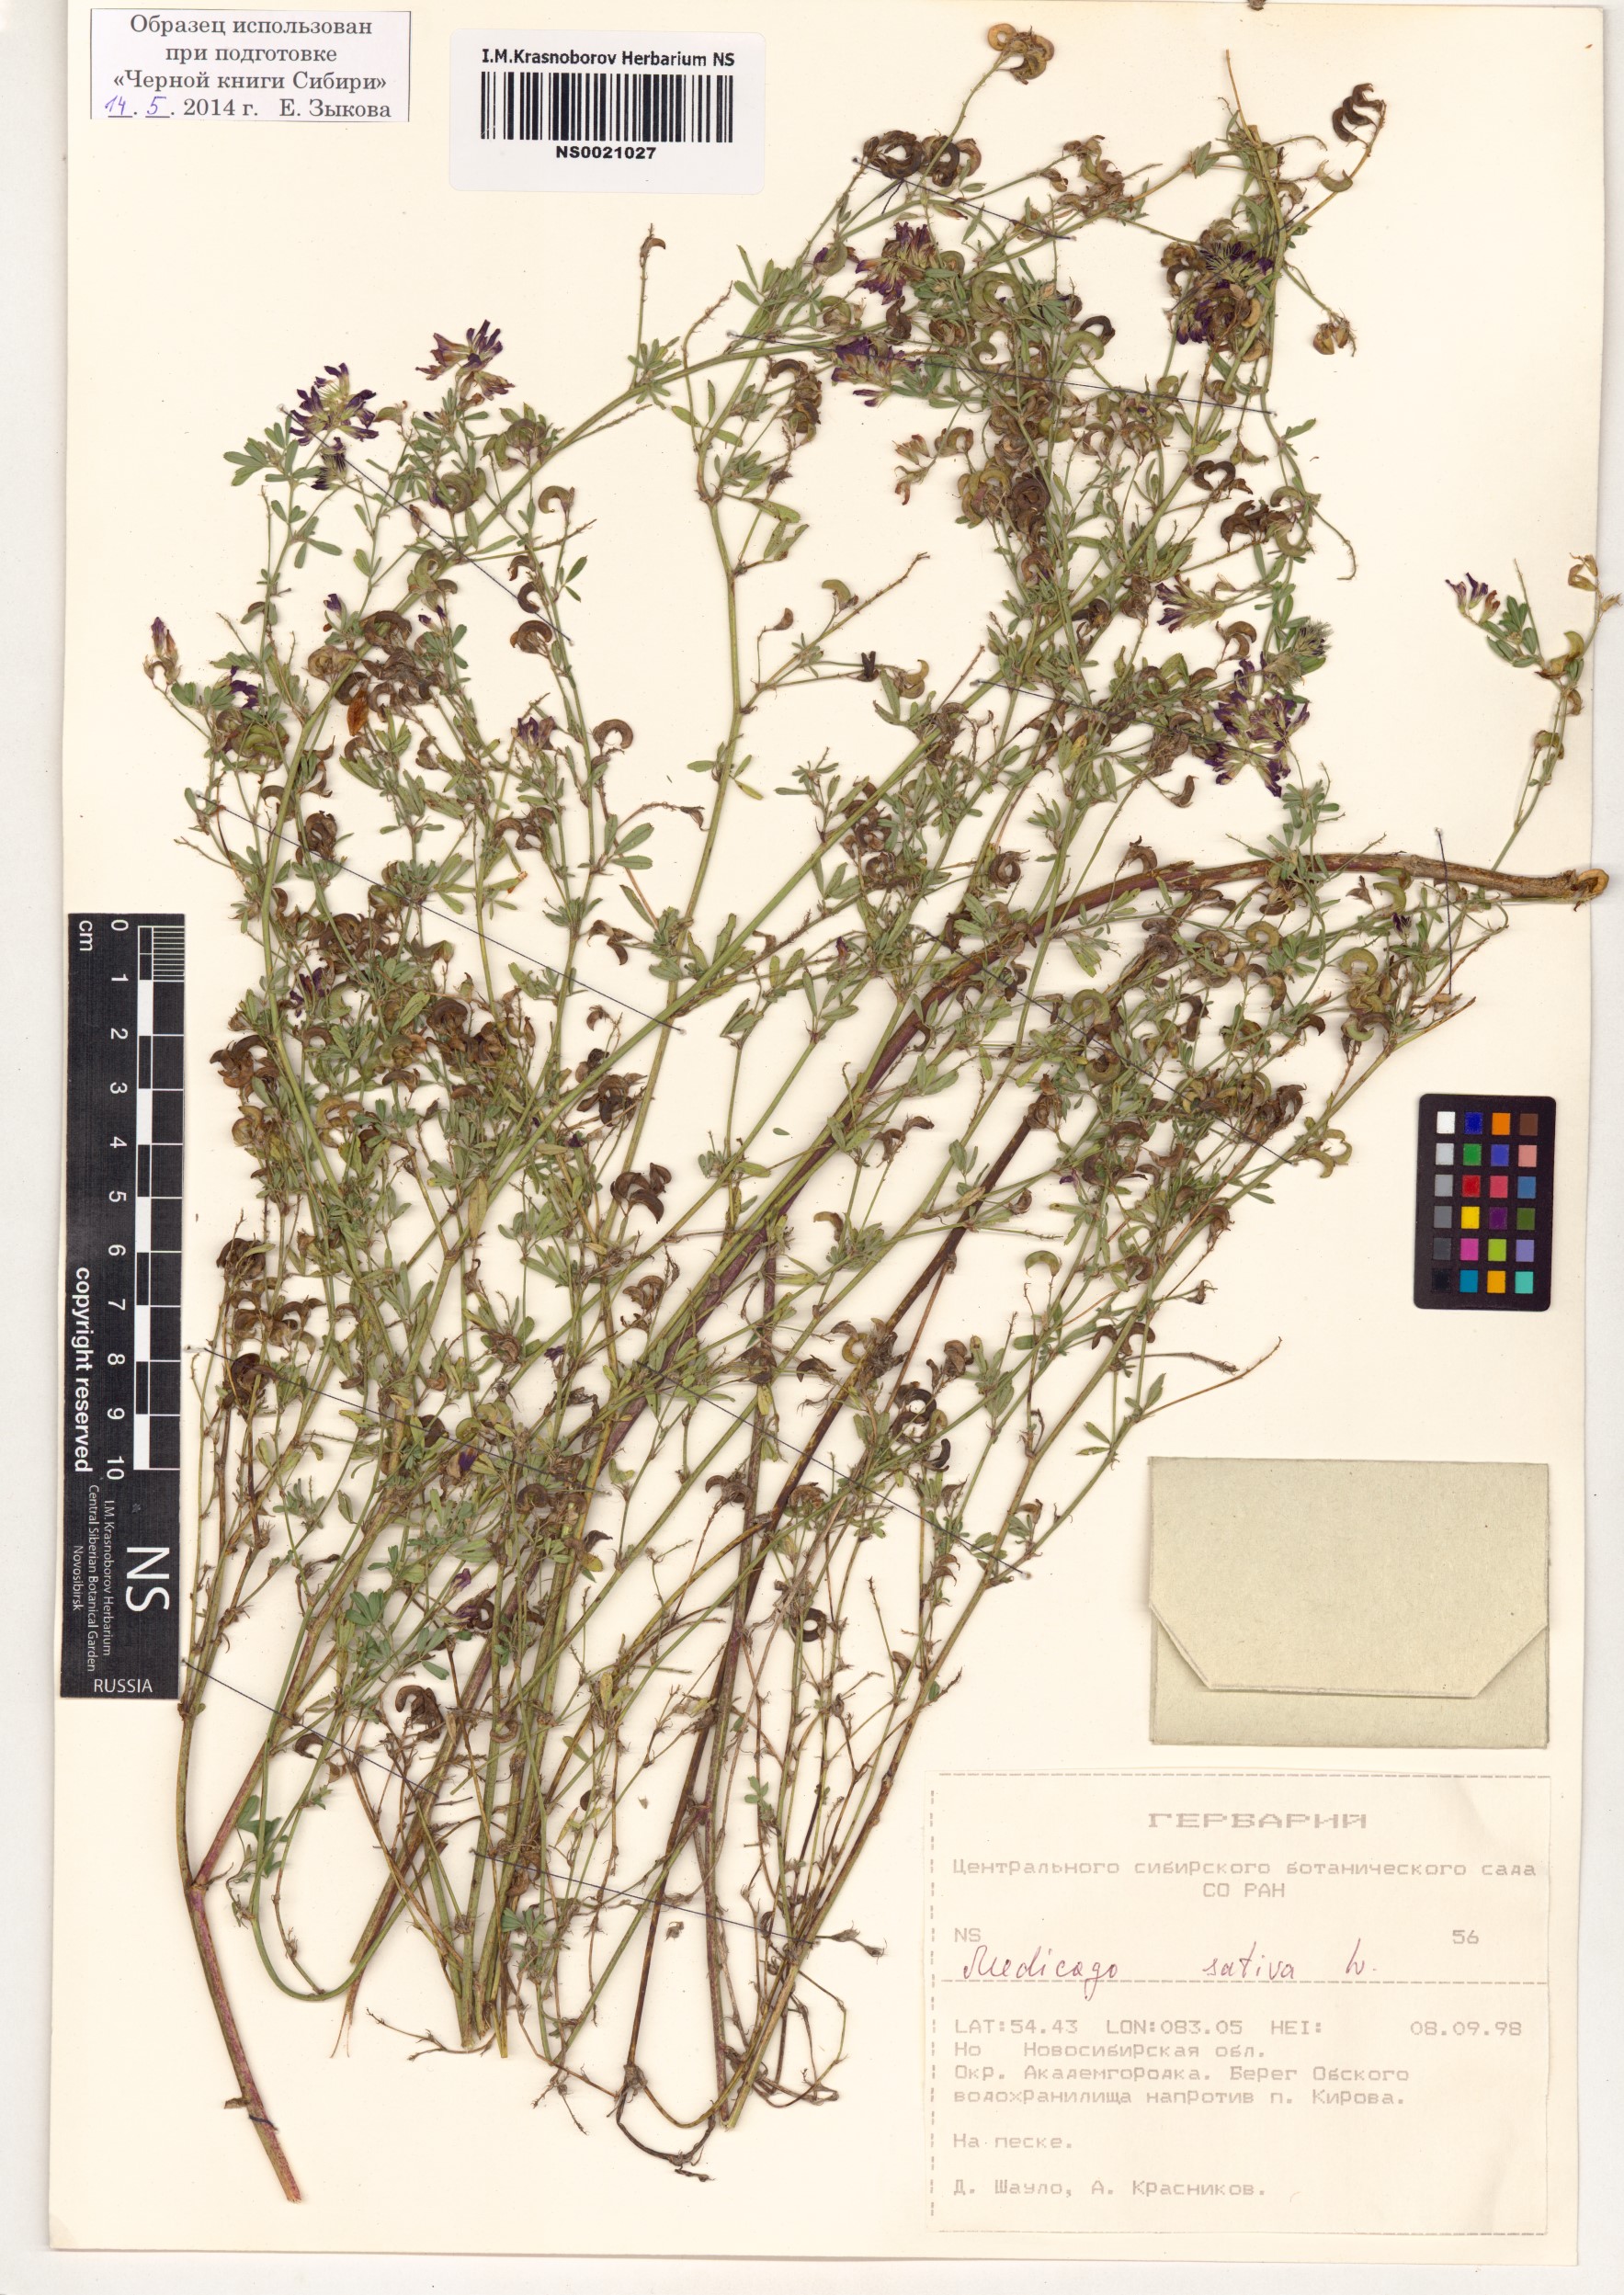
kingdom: Plantae
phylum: Tracheophyta
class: Magnoliopsida
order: Fabales
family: Fabaceae
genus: Medicago
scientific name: Medicago sativa
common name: Alfalfa
